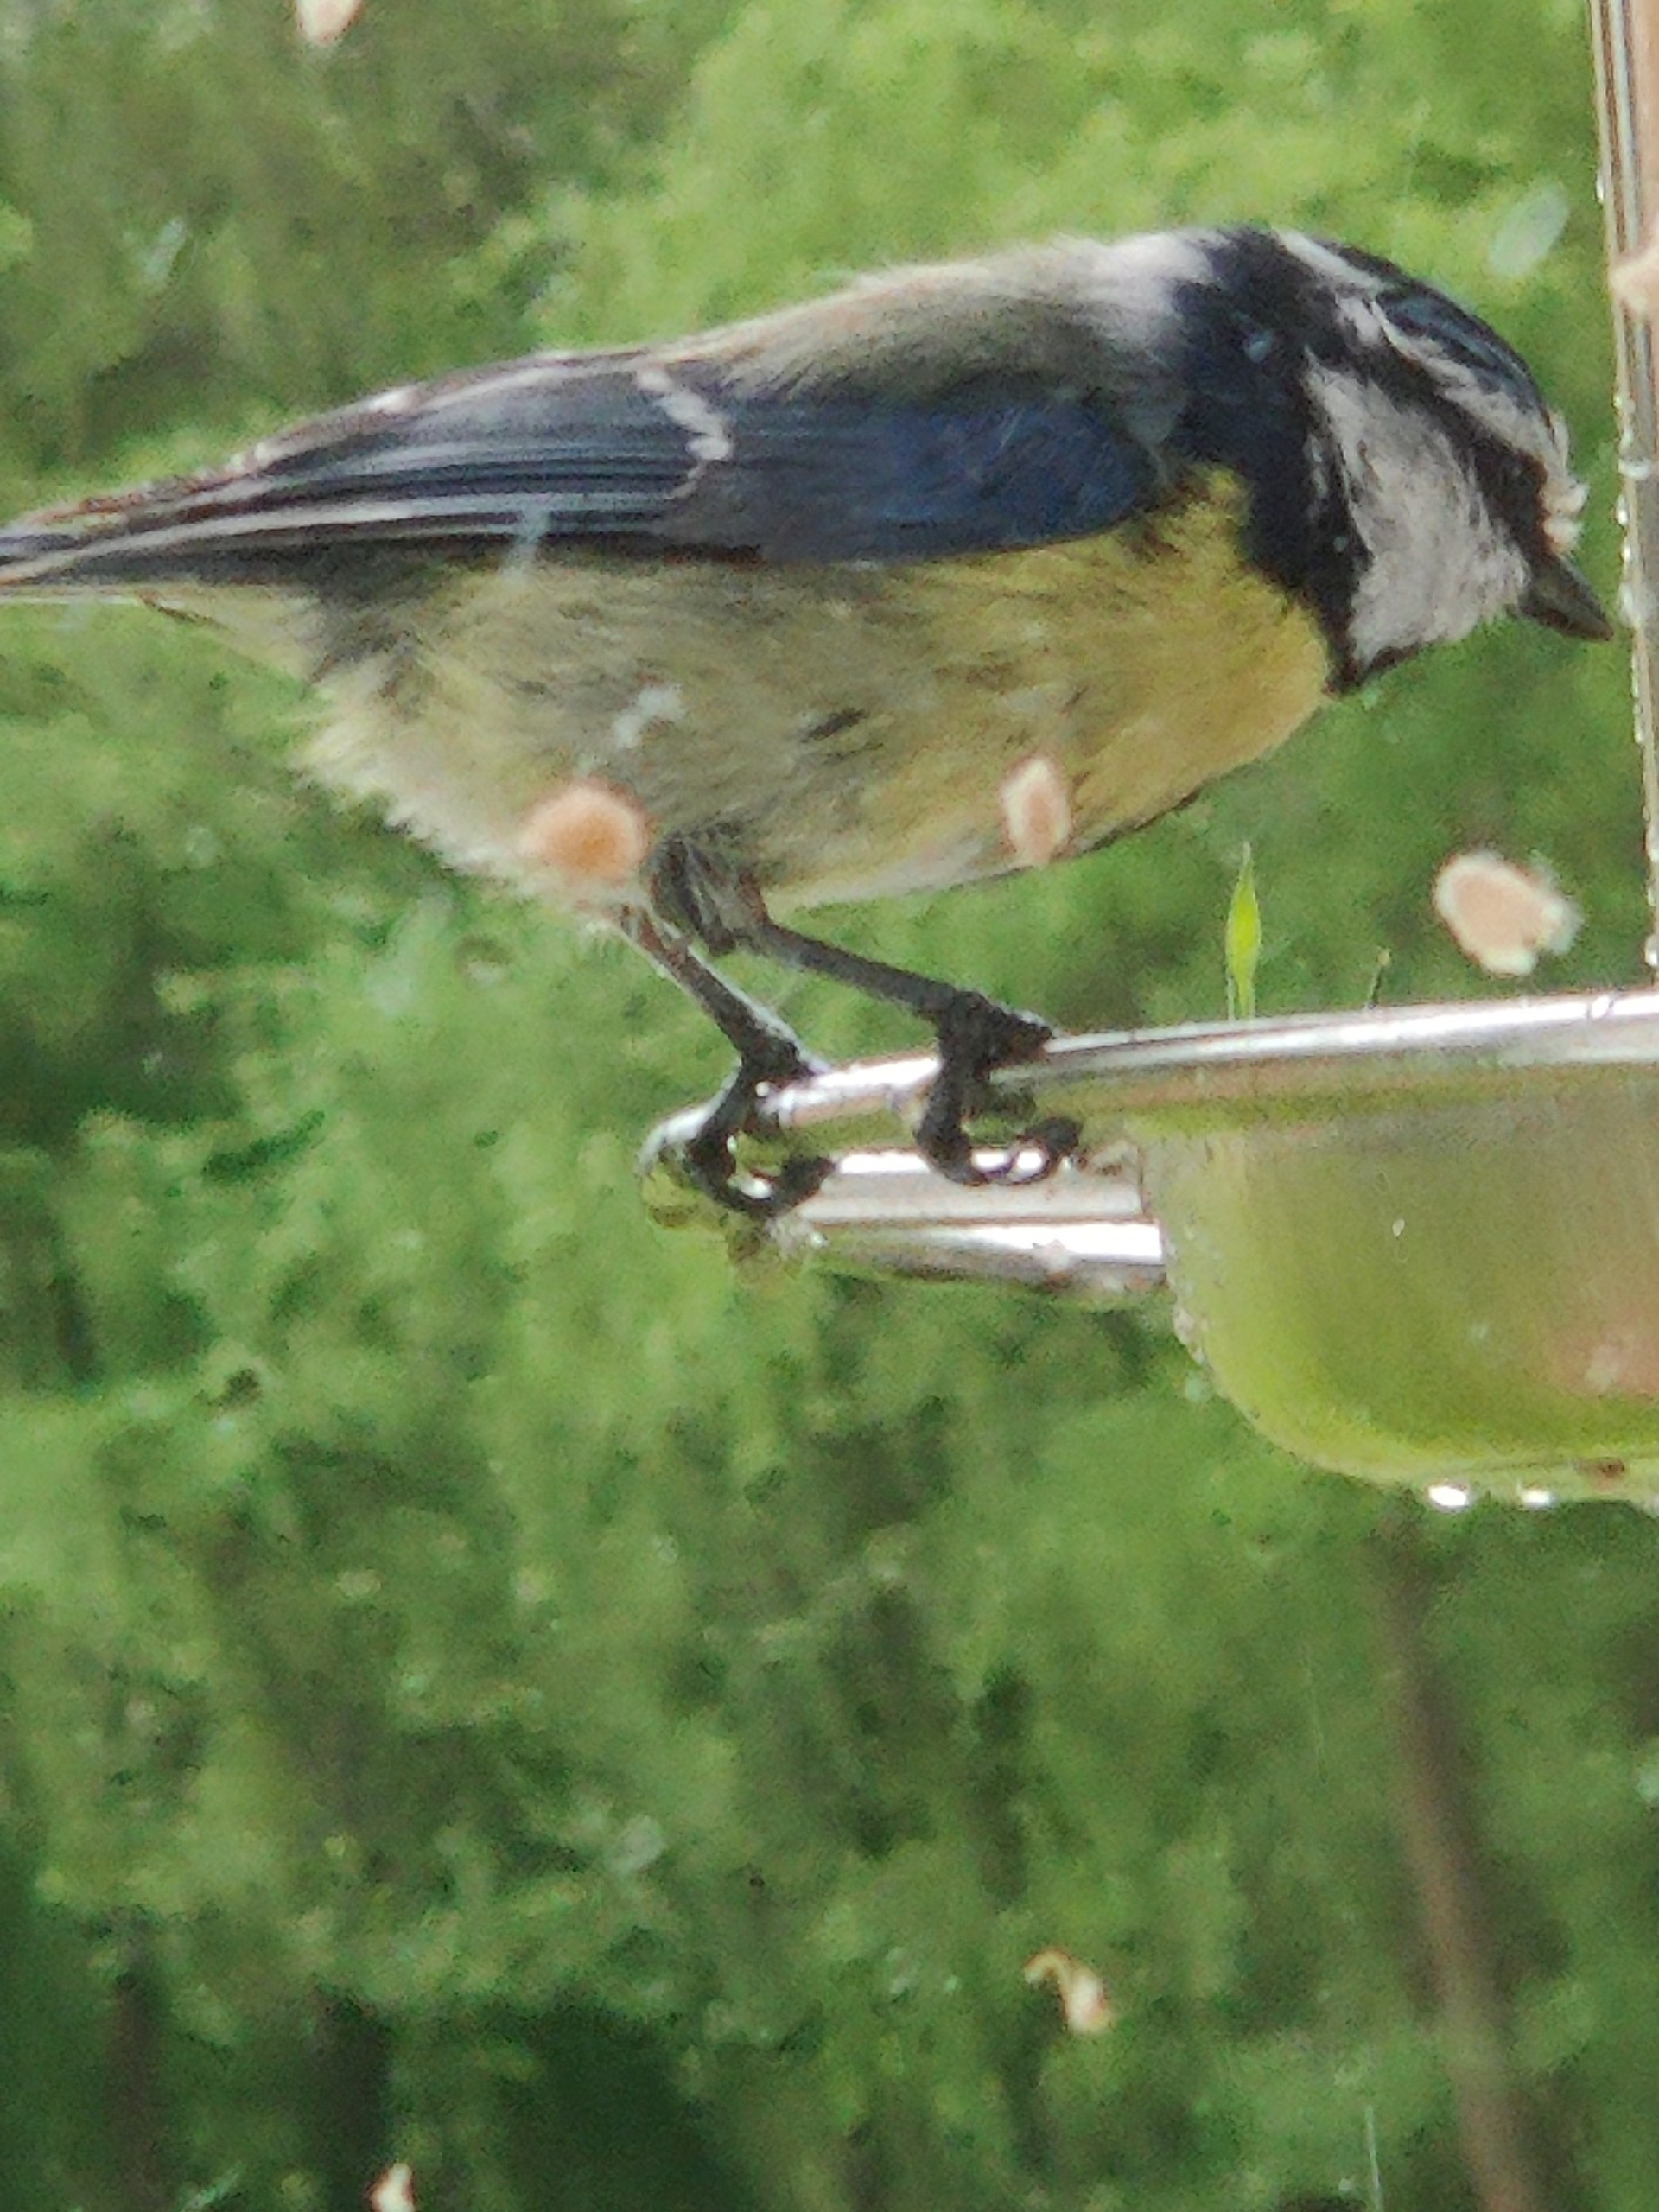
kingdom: Animalia
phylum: Chordata
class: Aves
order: Passeriformes
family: Paridae
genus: Cyanistes
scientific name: Cyanistes caeruleus
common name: Blåmejse
